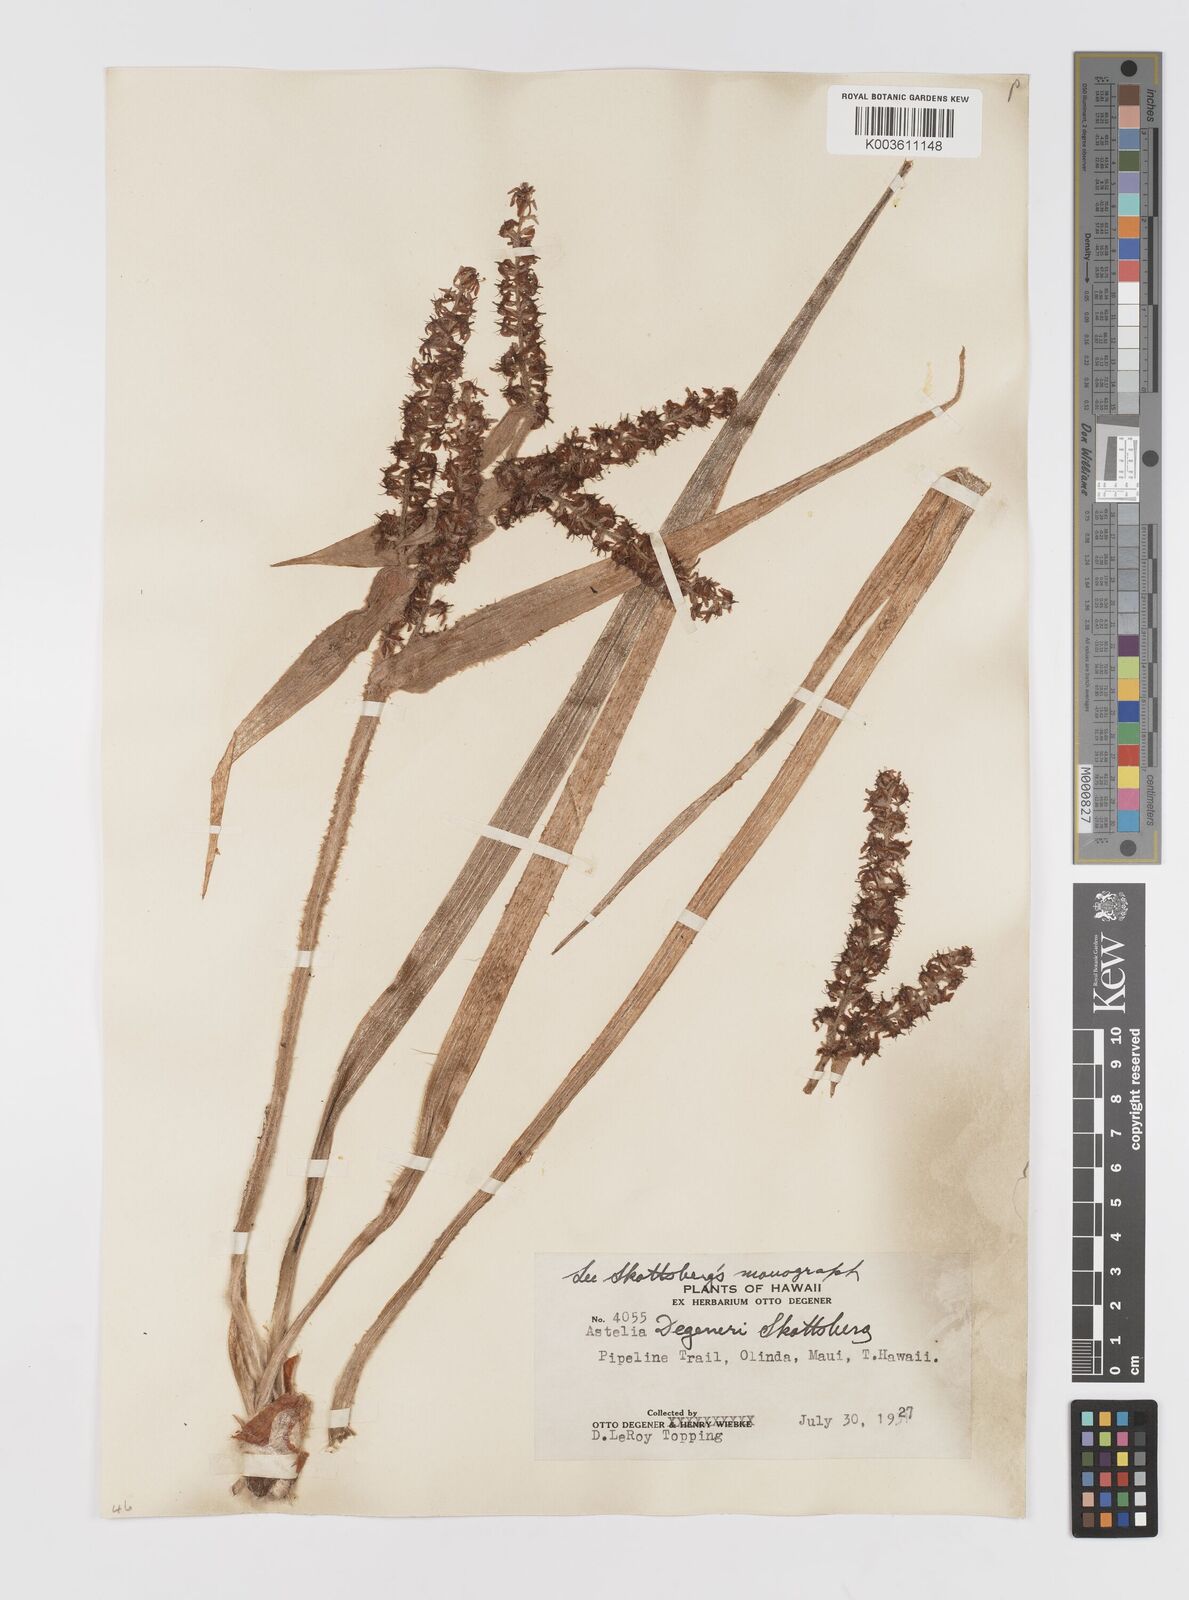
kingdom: Plantae
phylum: Tracheophyta
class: Liliopsida
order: Asparagales
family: Asteliaceae
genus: Astelia
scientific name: Astelia menziesiana
